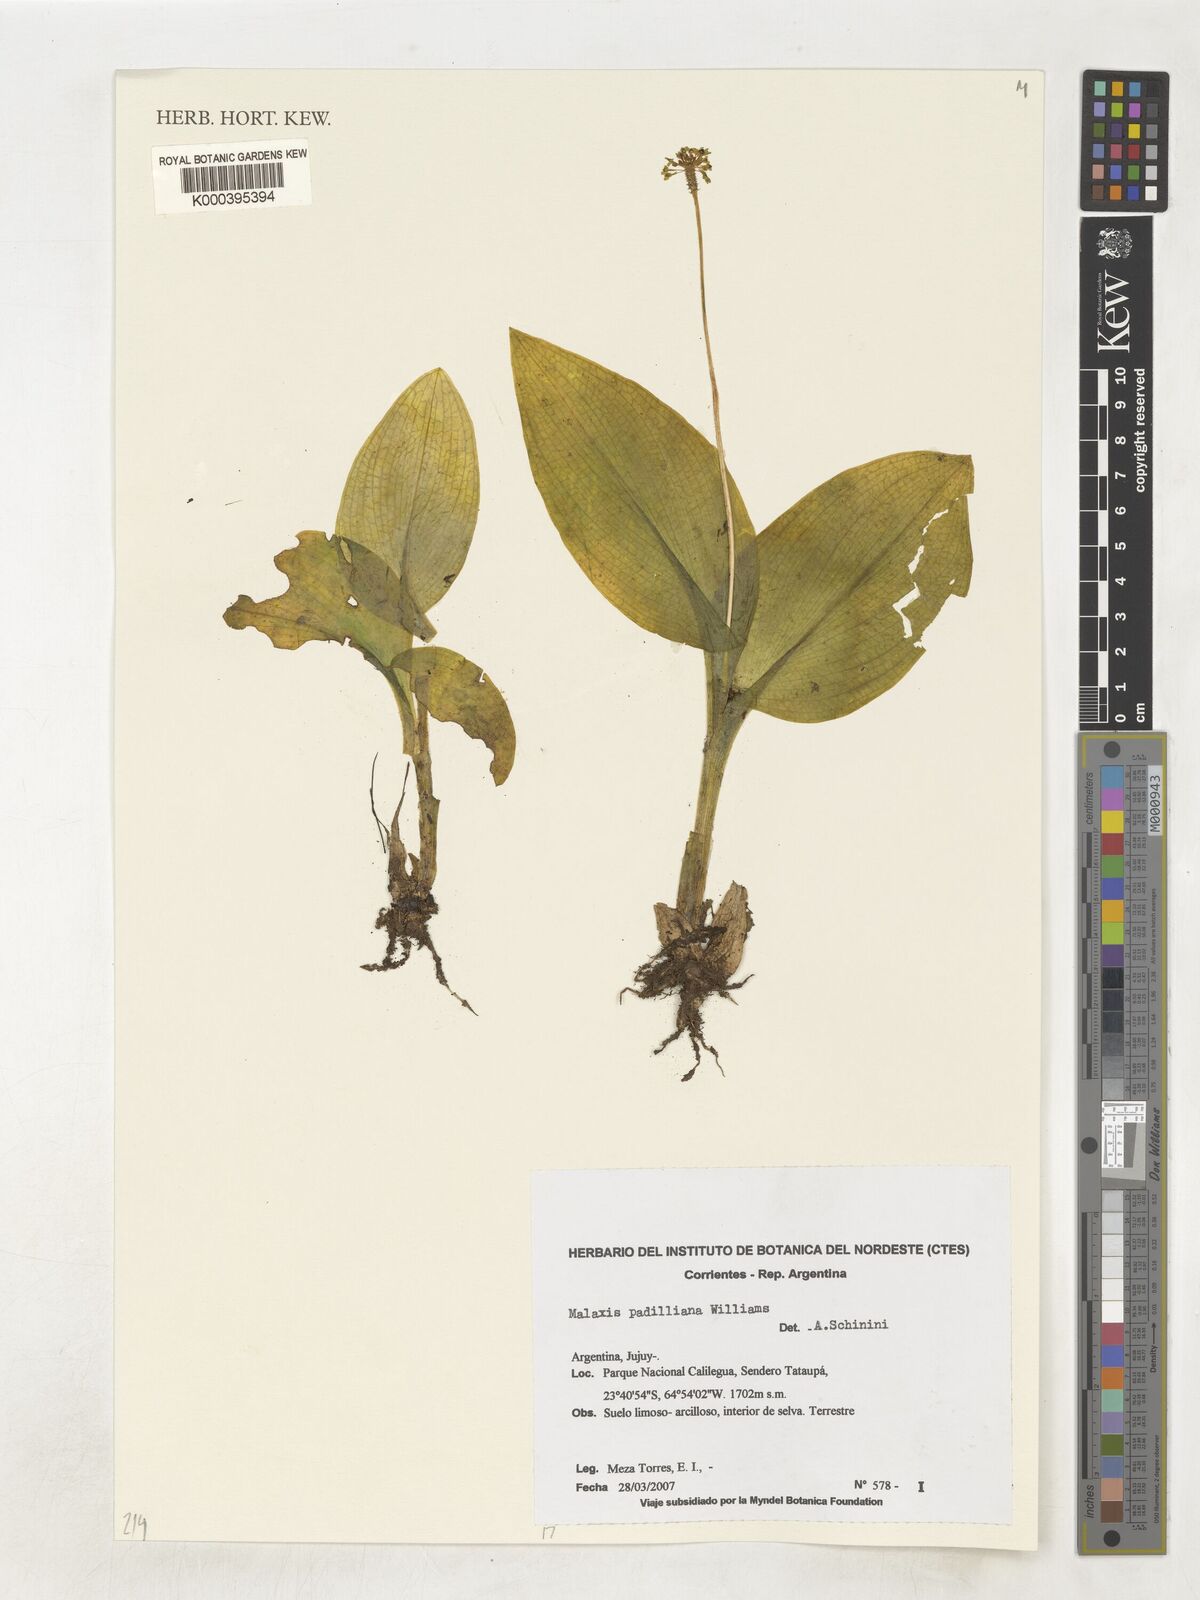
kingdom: Plantae
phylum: Tracheophyta
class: Liliopsida
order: Asparagales
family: Orchidaceae
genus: Malaxis
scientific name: Malaxis padilliana
